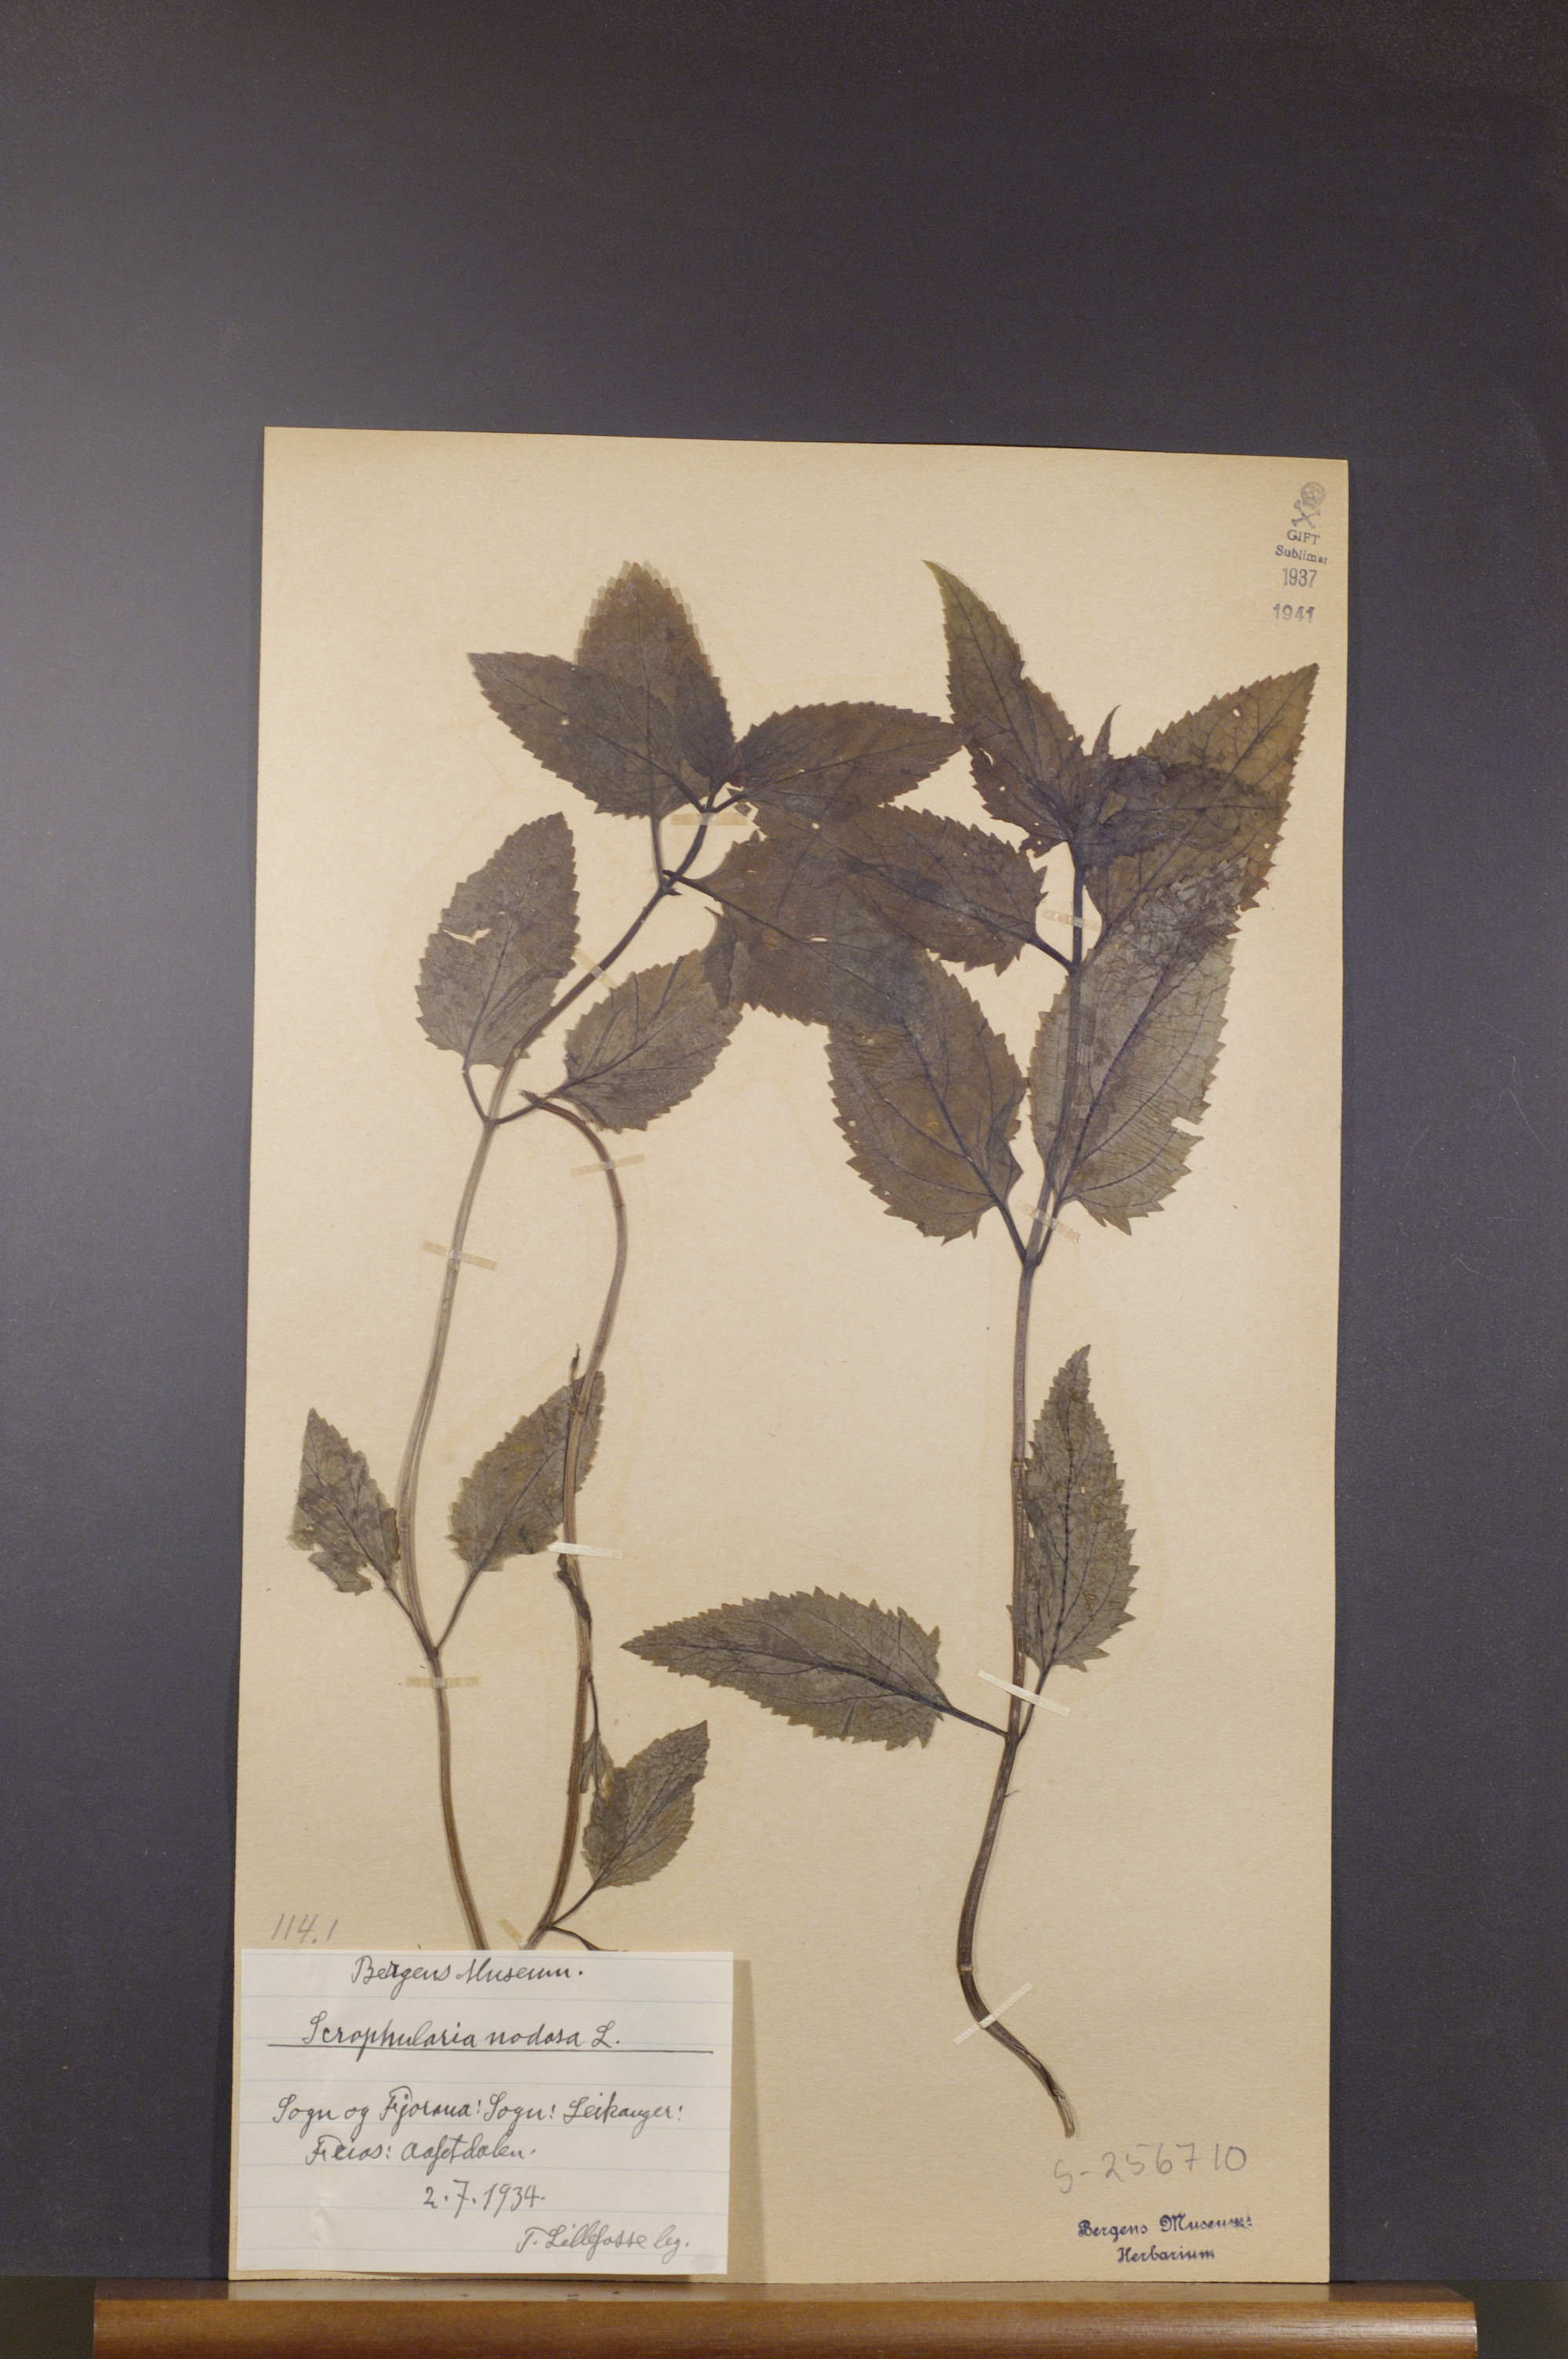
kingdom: Plantae
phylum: Tracheophyta
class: Magnoliopsida
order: Lamiales
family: Scrophulariaceae
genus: Scrophularia
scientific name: Scrophularia nodosa
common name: Common figwort
